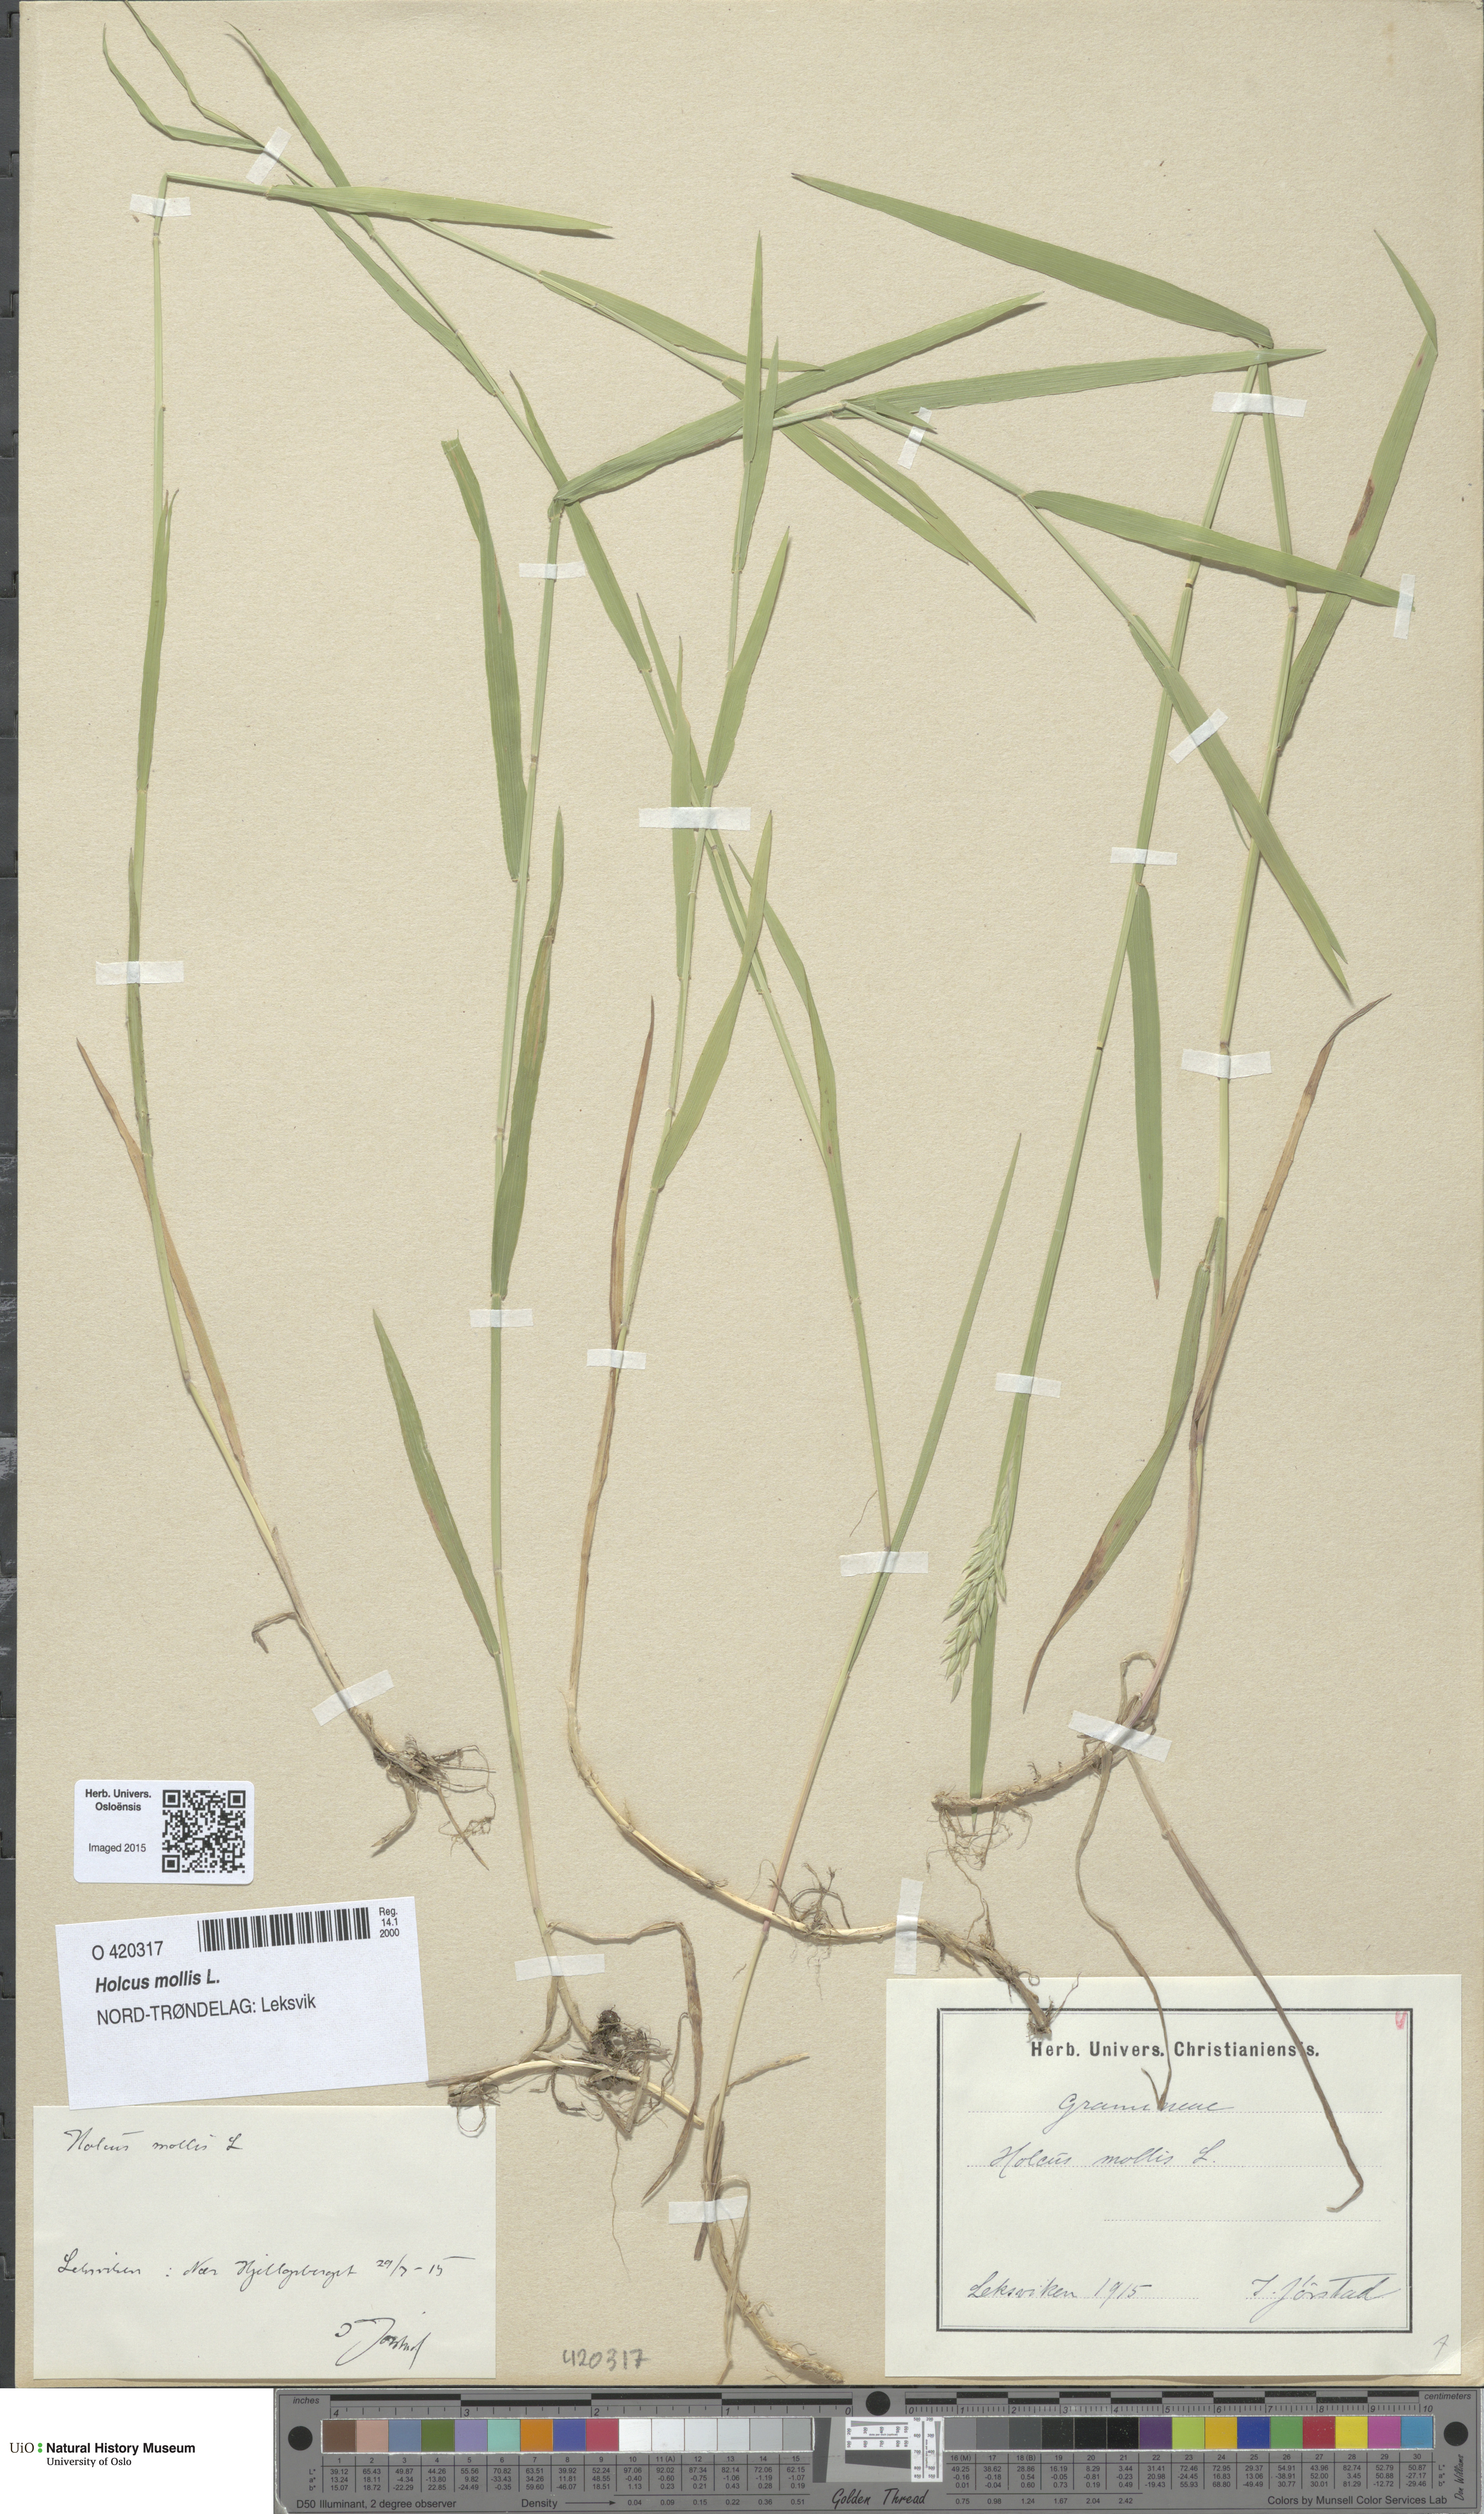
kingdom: Plantae
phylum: Tracheophyta
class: Liliopsida
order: Poales
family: Poaceae
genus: Holcus
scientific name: Holcus mollis
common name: Creeping velvetgrass
